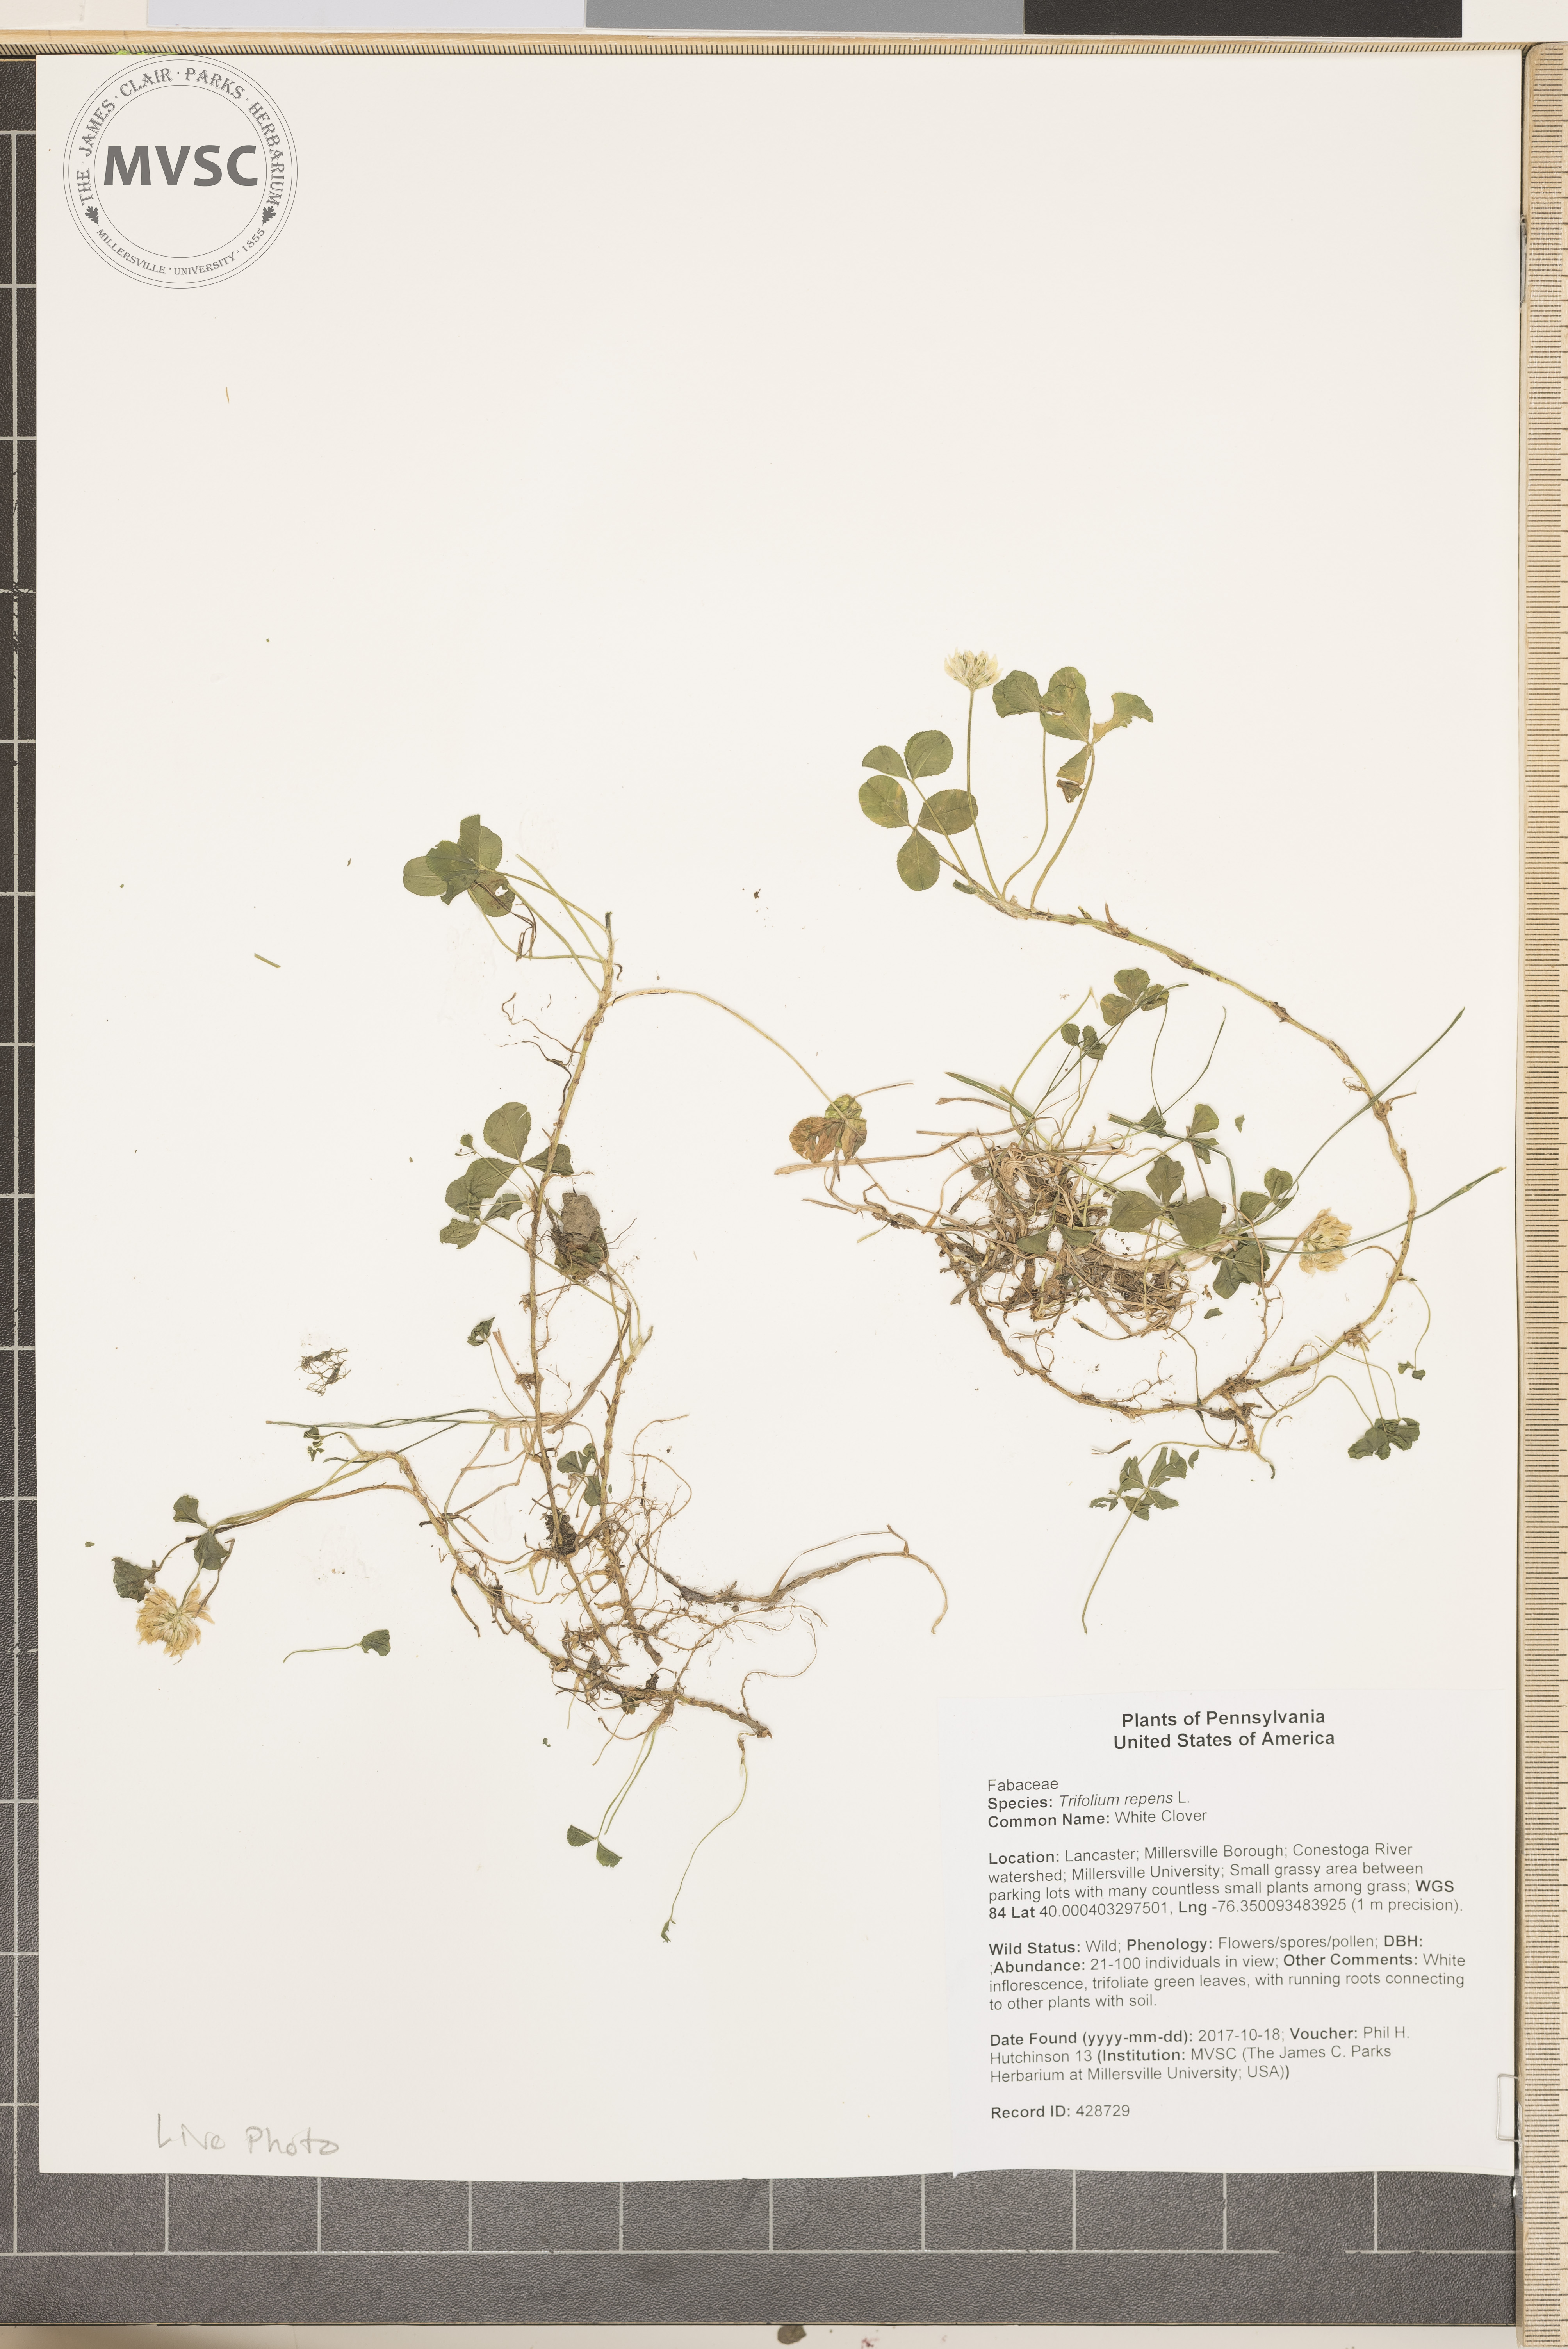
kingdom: Plantae
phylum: Tracheophyta
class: Magnoliopsida
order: Fabales
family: Fabaceae
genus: Trifolium
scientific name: Trifolium repens
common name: White Clover
